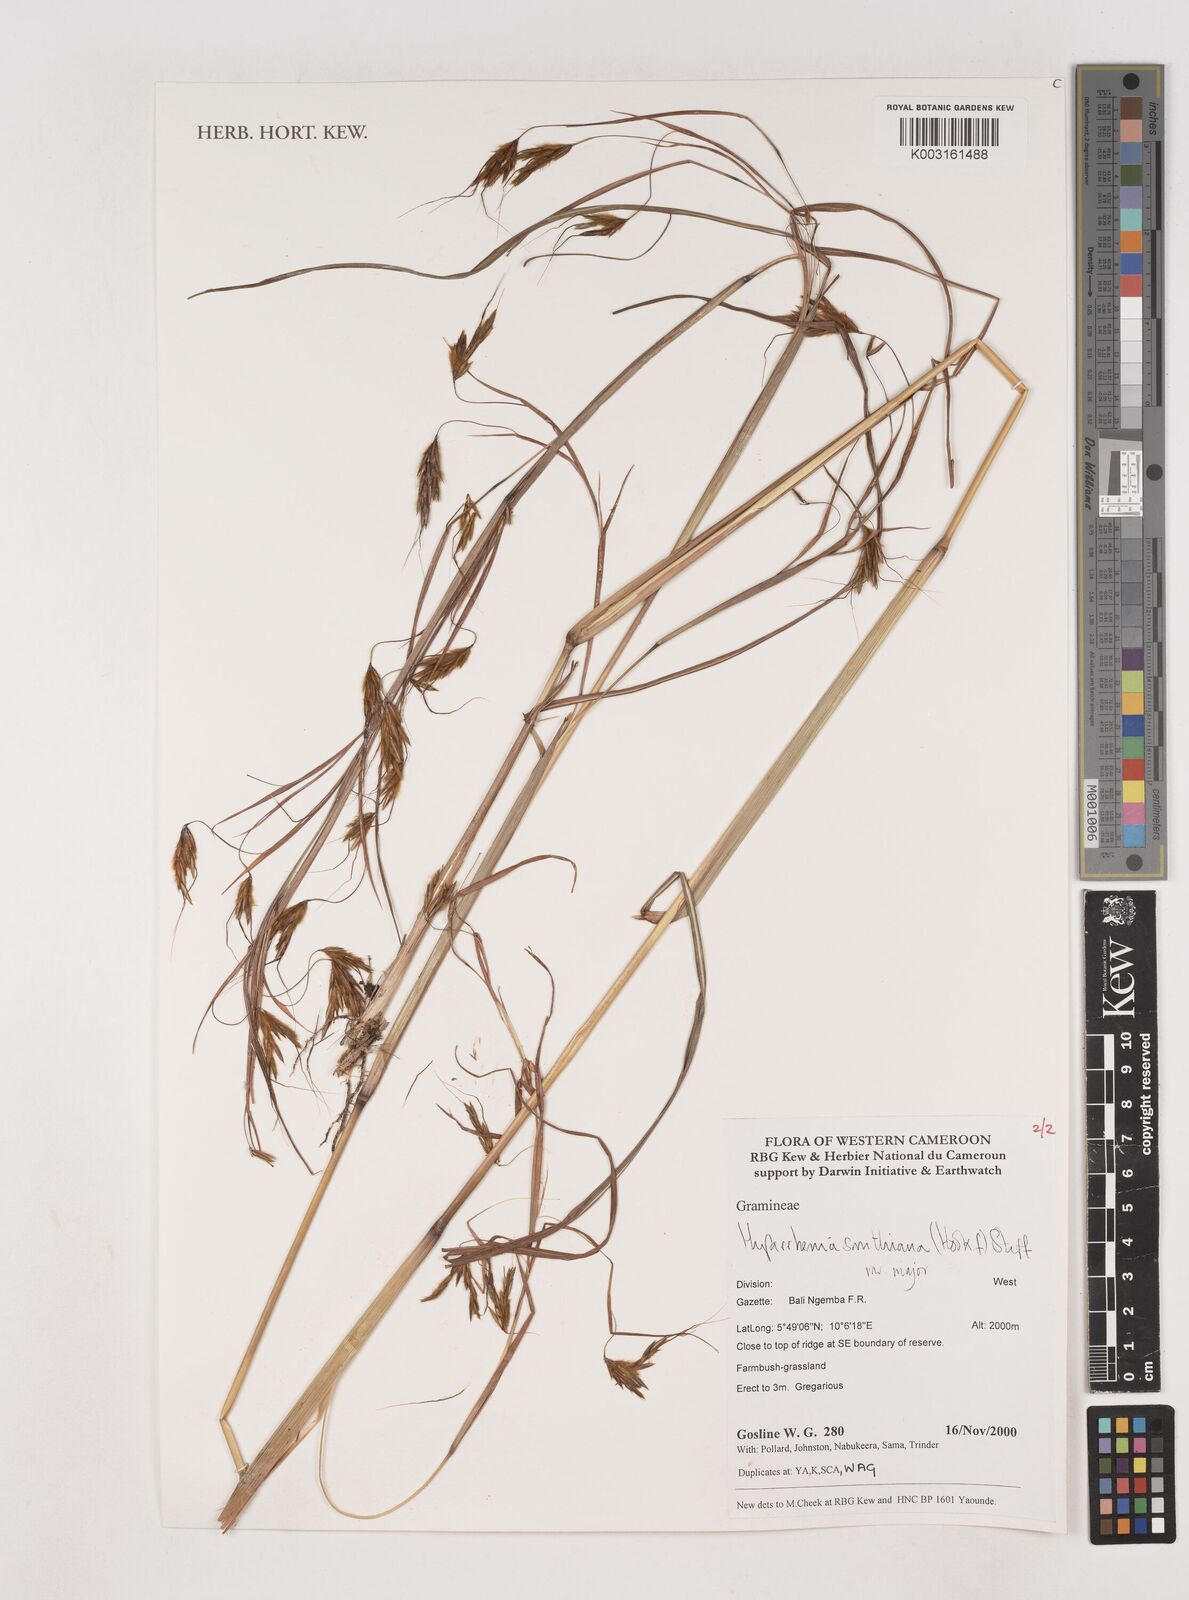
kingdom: Plantae
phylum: Tracheophyta
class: Liliopsida
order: Poales
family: Poaceae
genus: Hyparrhenia
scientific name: Hyparrhenia smithiana
